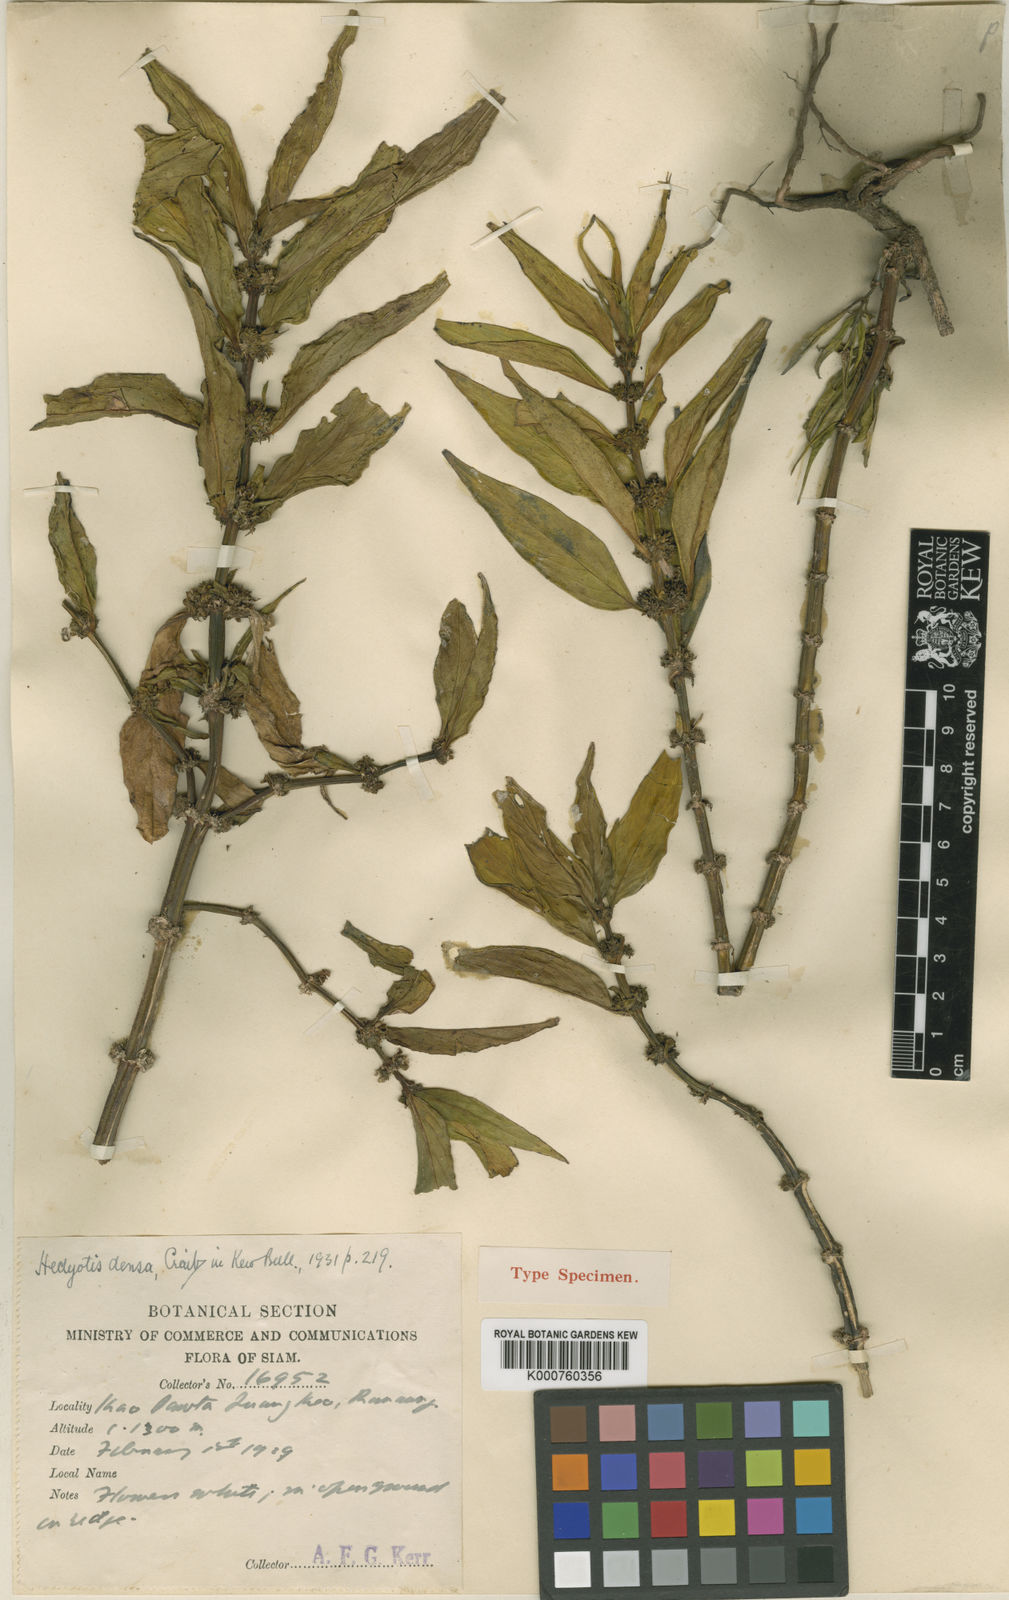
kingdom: Plantae
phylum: Tracheophyta
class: Magnoliopsida
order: Gentianales
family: Rubiaceae
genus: Hedyotis
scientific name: Hedyotis densa
